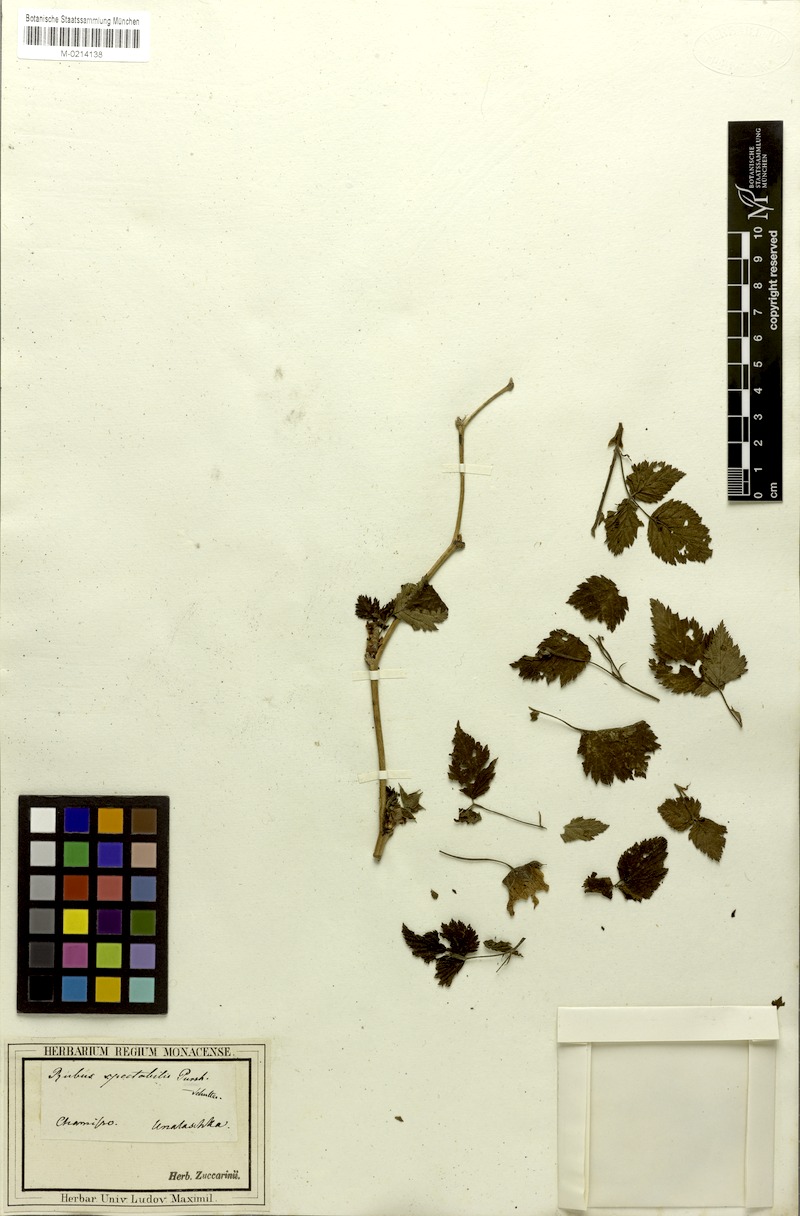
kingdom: Plantae
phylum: Tracheophyta
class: Magnoliopsida
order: Rosales
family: Rosaceae
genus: Rubus
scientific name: Rubus spectabilis
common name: Salmonberry
